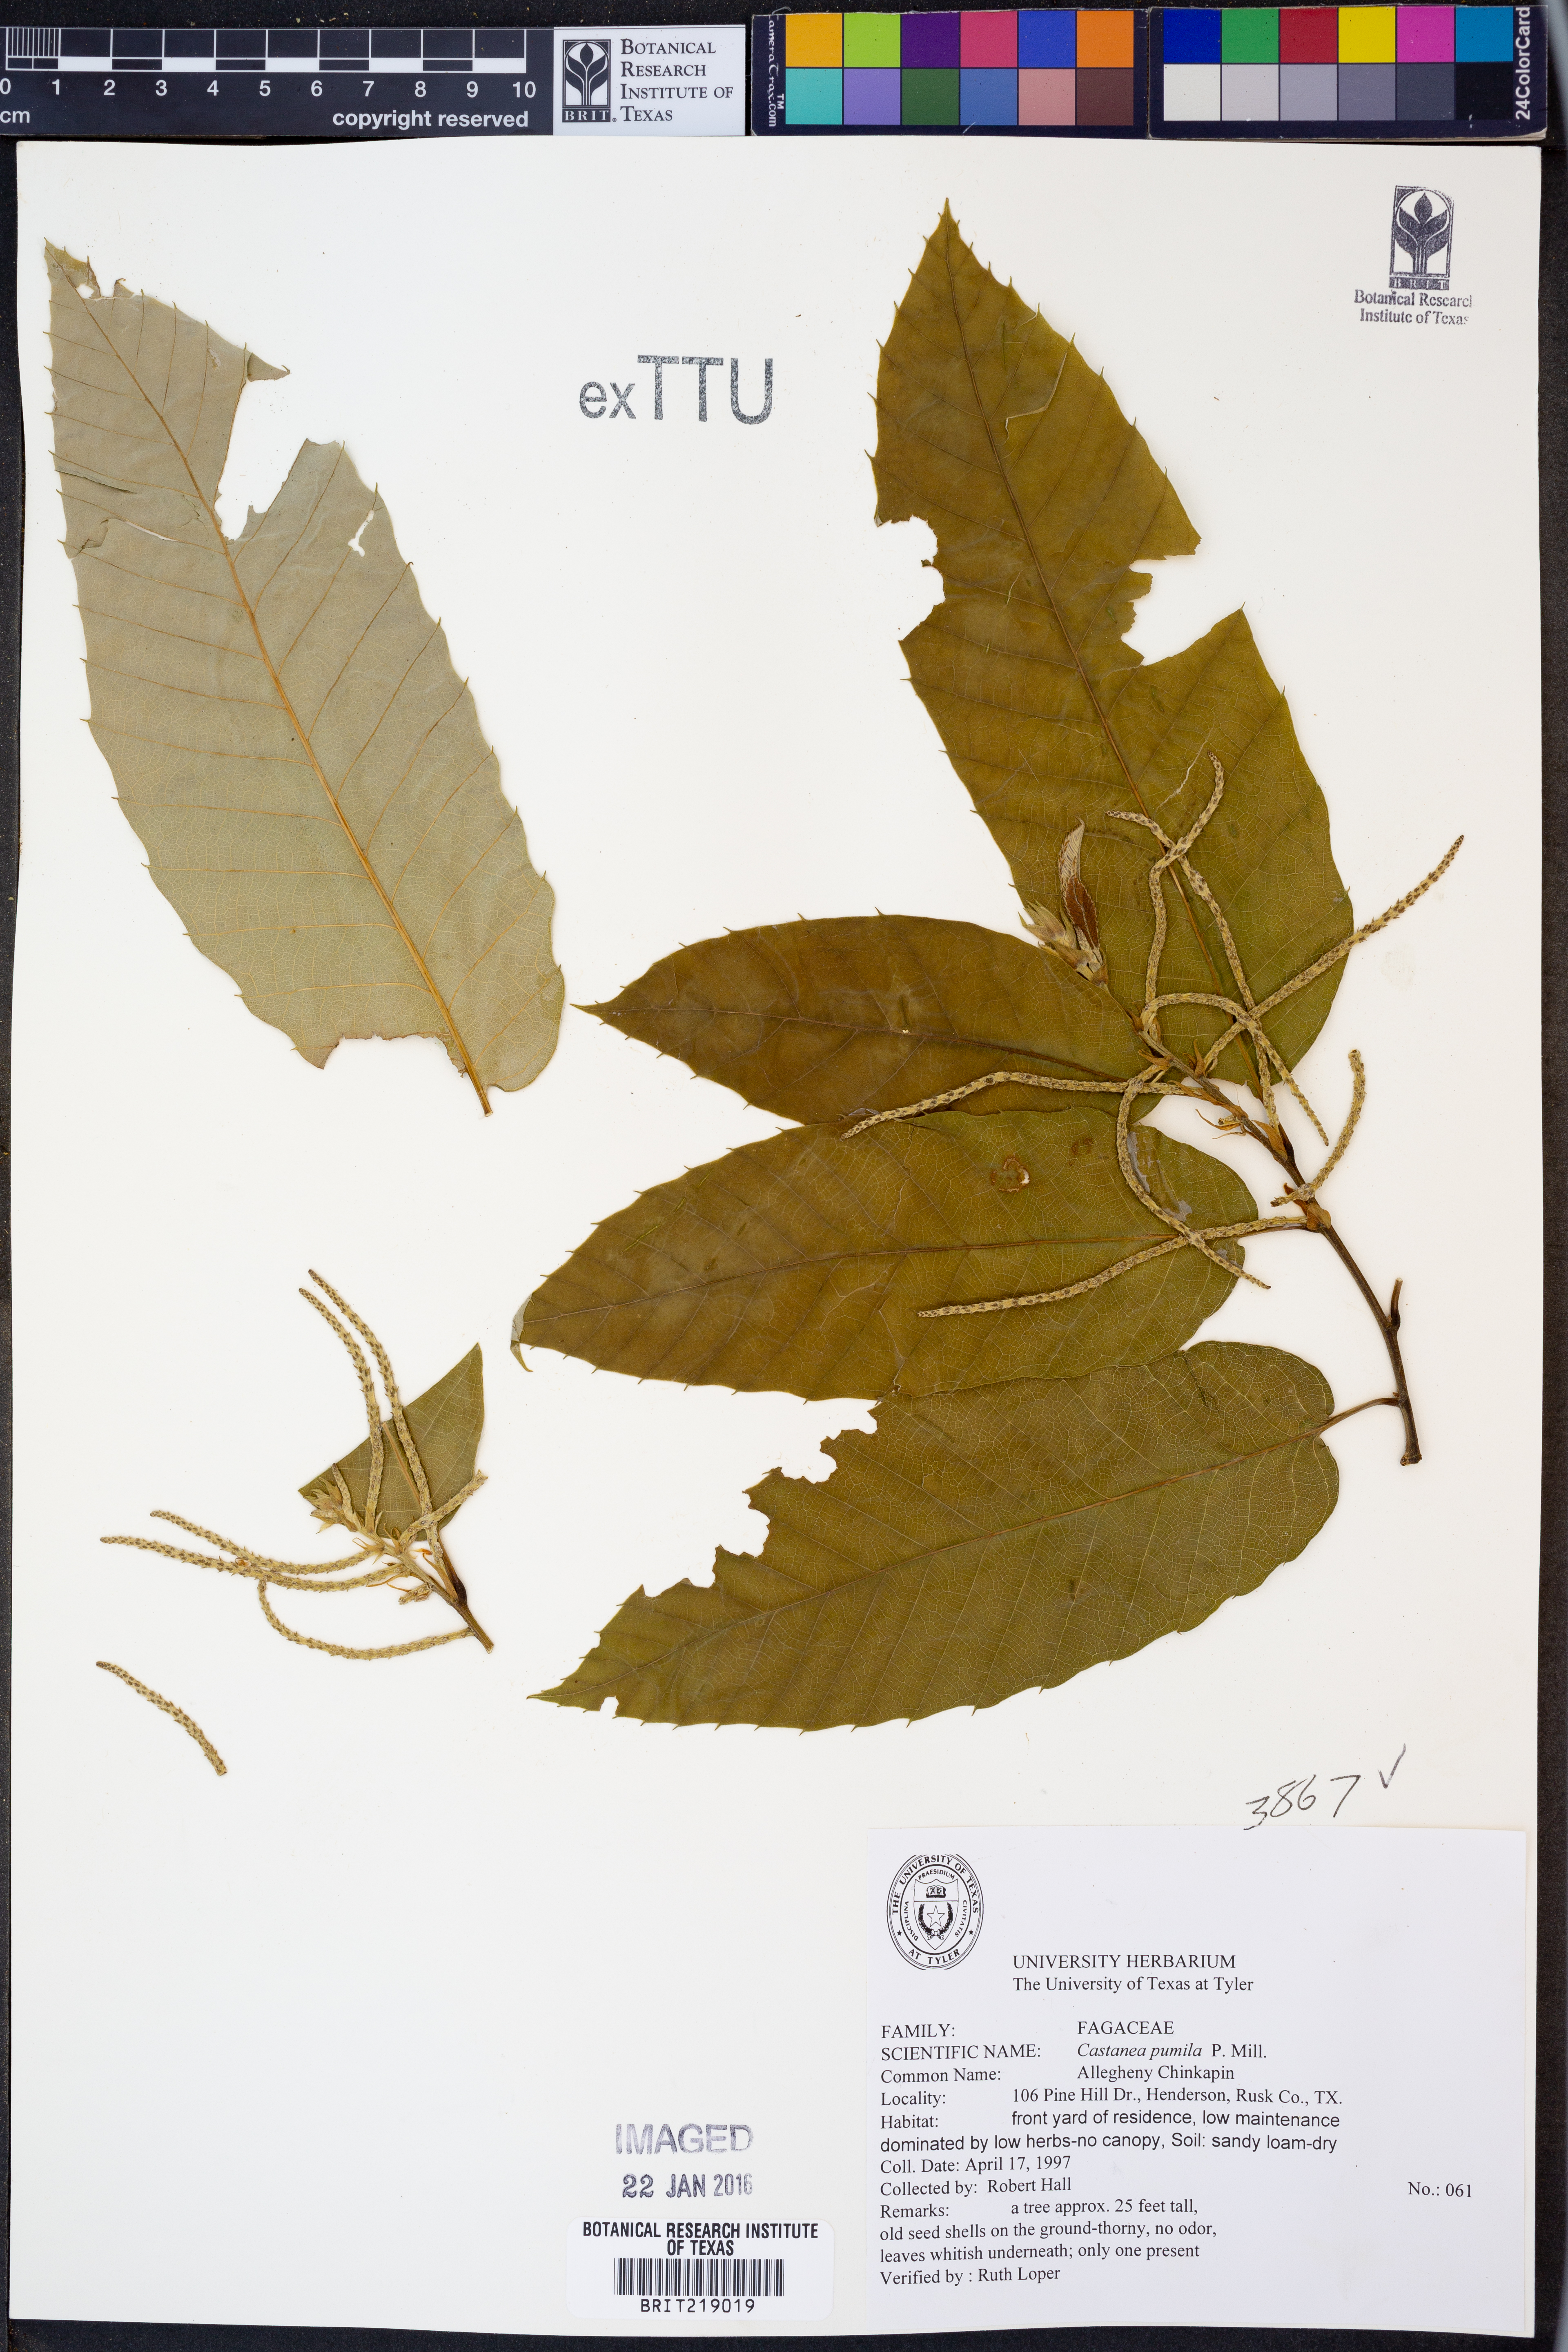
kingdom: Plantae
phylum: Tracheophyta
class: Magnoliopsida
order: Fagales
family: Fagaceae
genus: Castanea
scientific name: Castanea pumila
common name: Chinkapin
